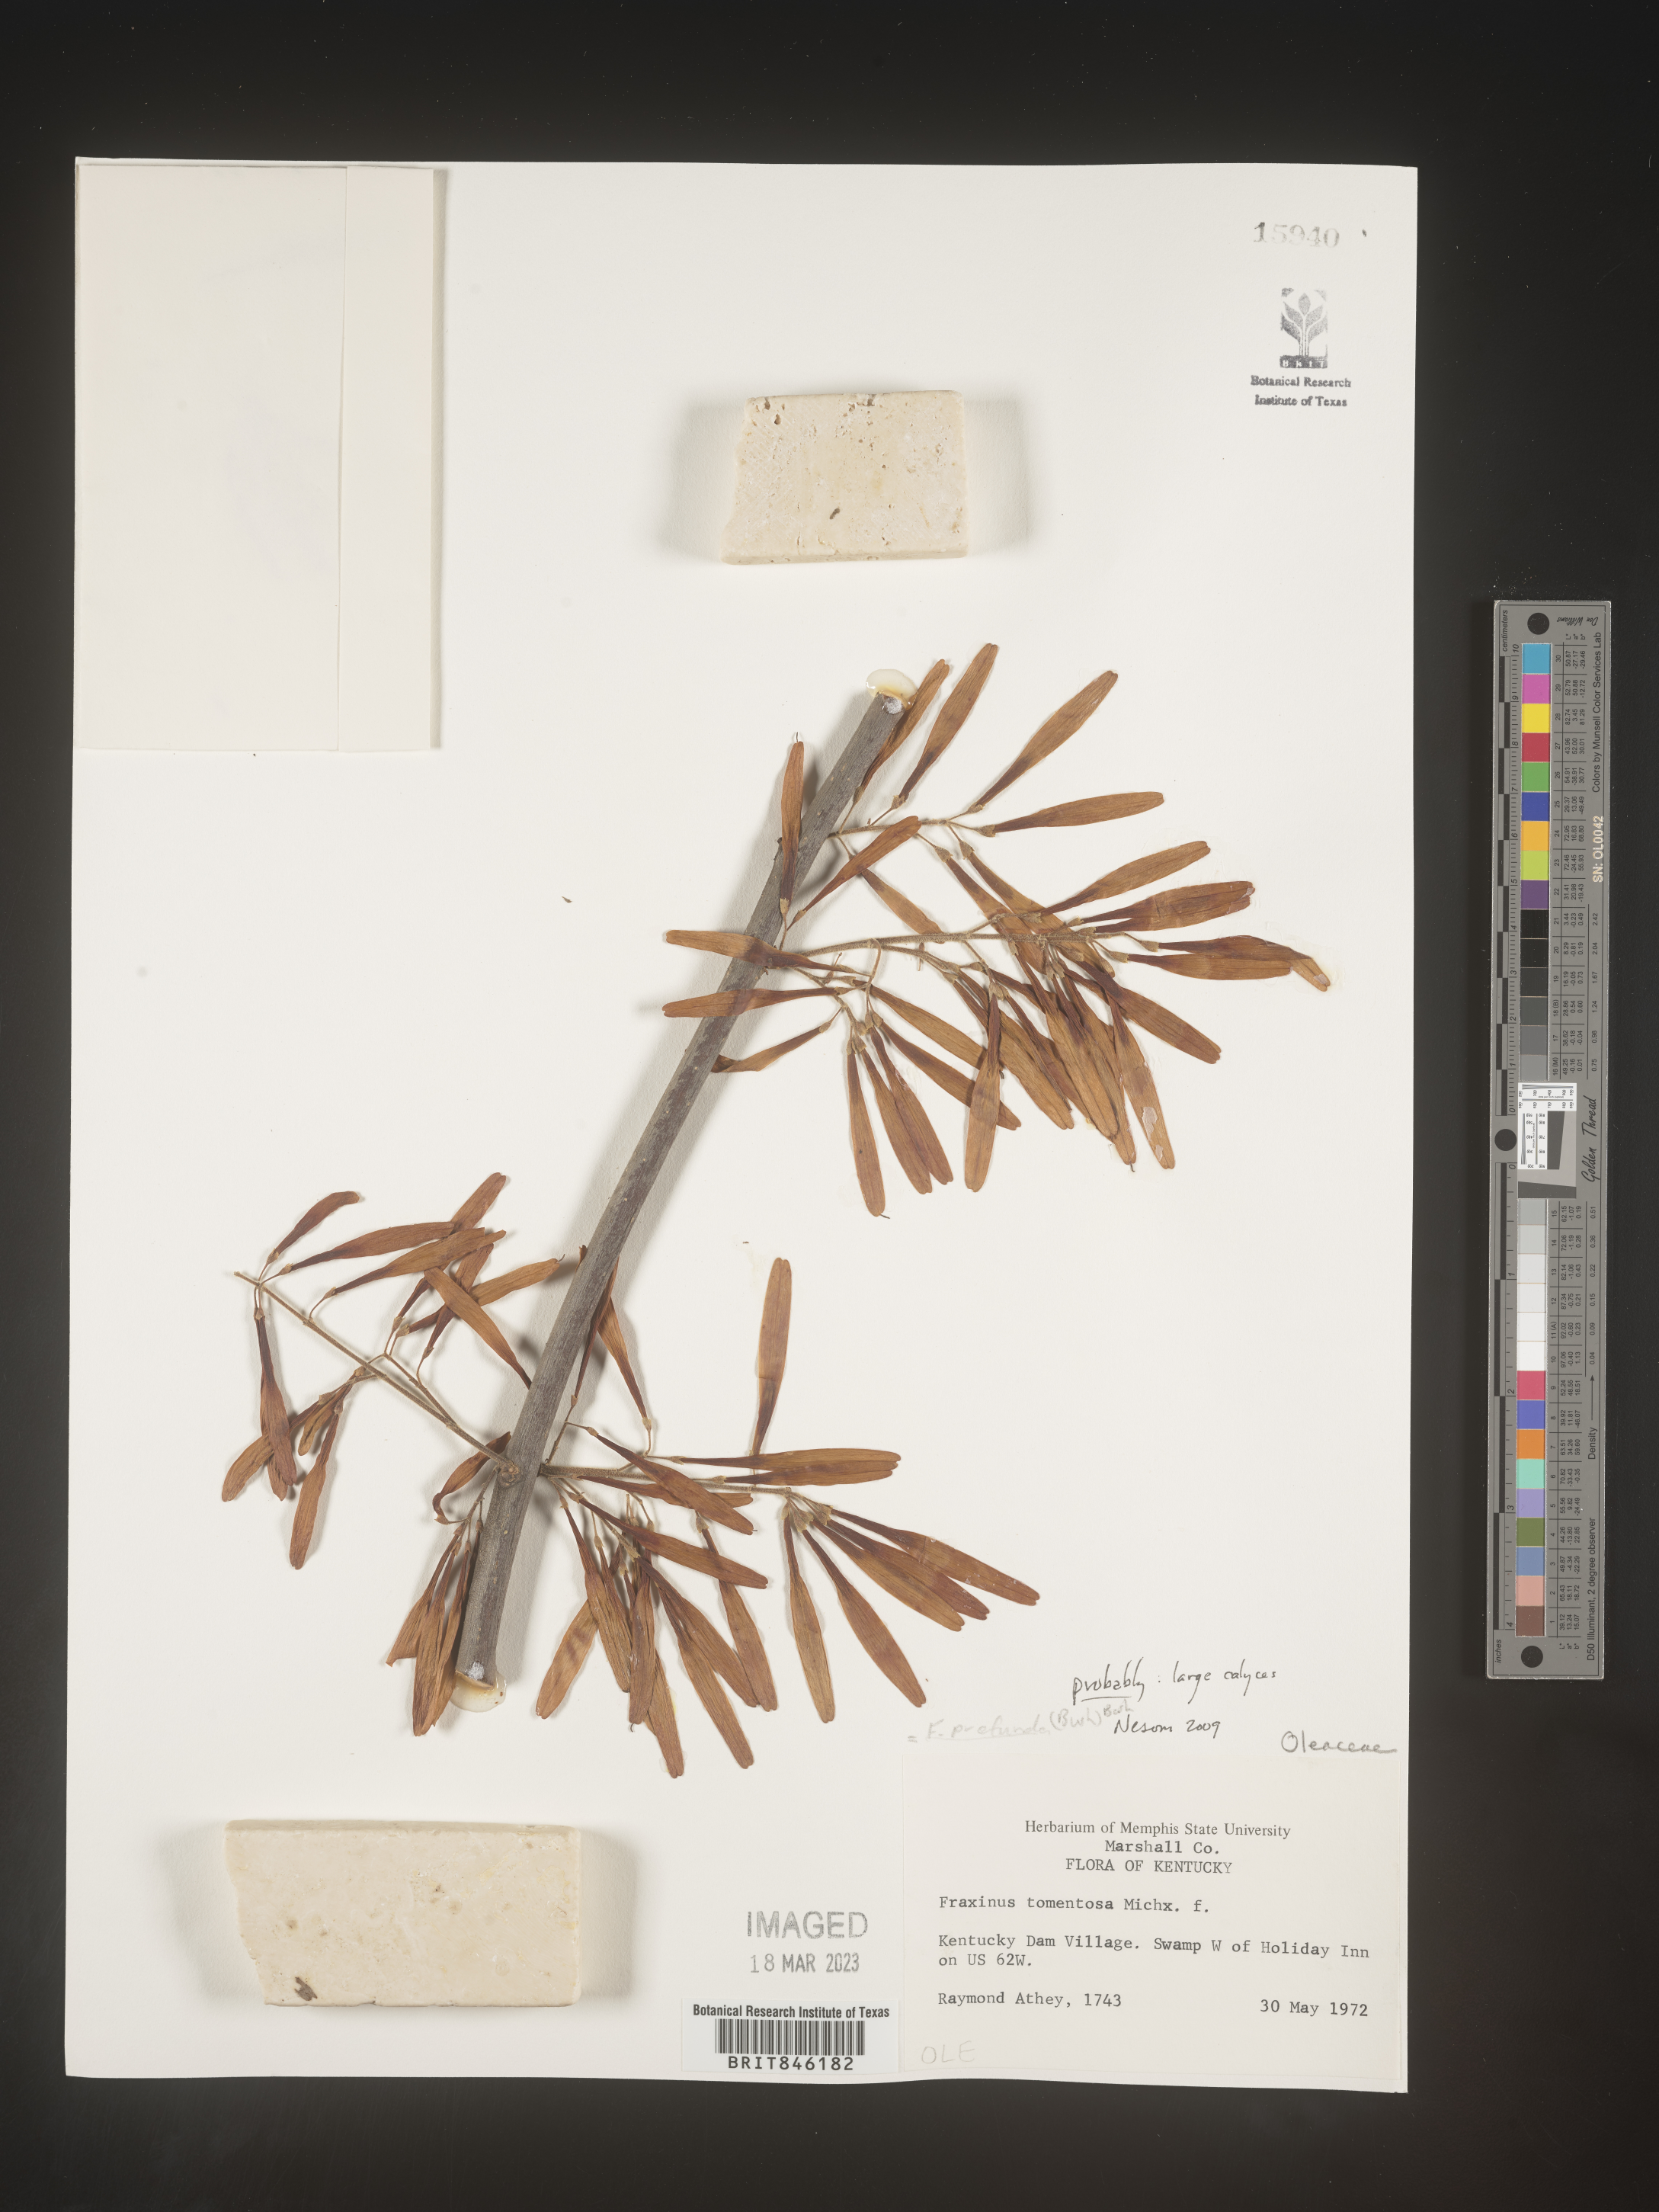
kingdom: Plantae
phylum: Tracheophyta
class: Magnoliopsida
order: Lamiales
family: Oleaceae
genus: Fraxinus
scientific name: Fraxinus profunda
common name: Pumpkin ash
